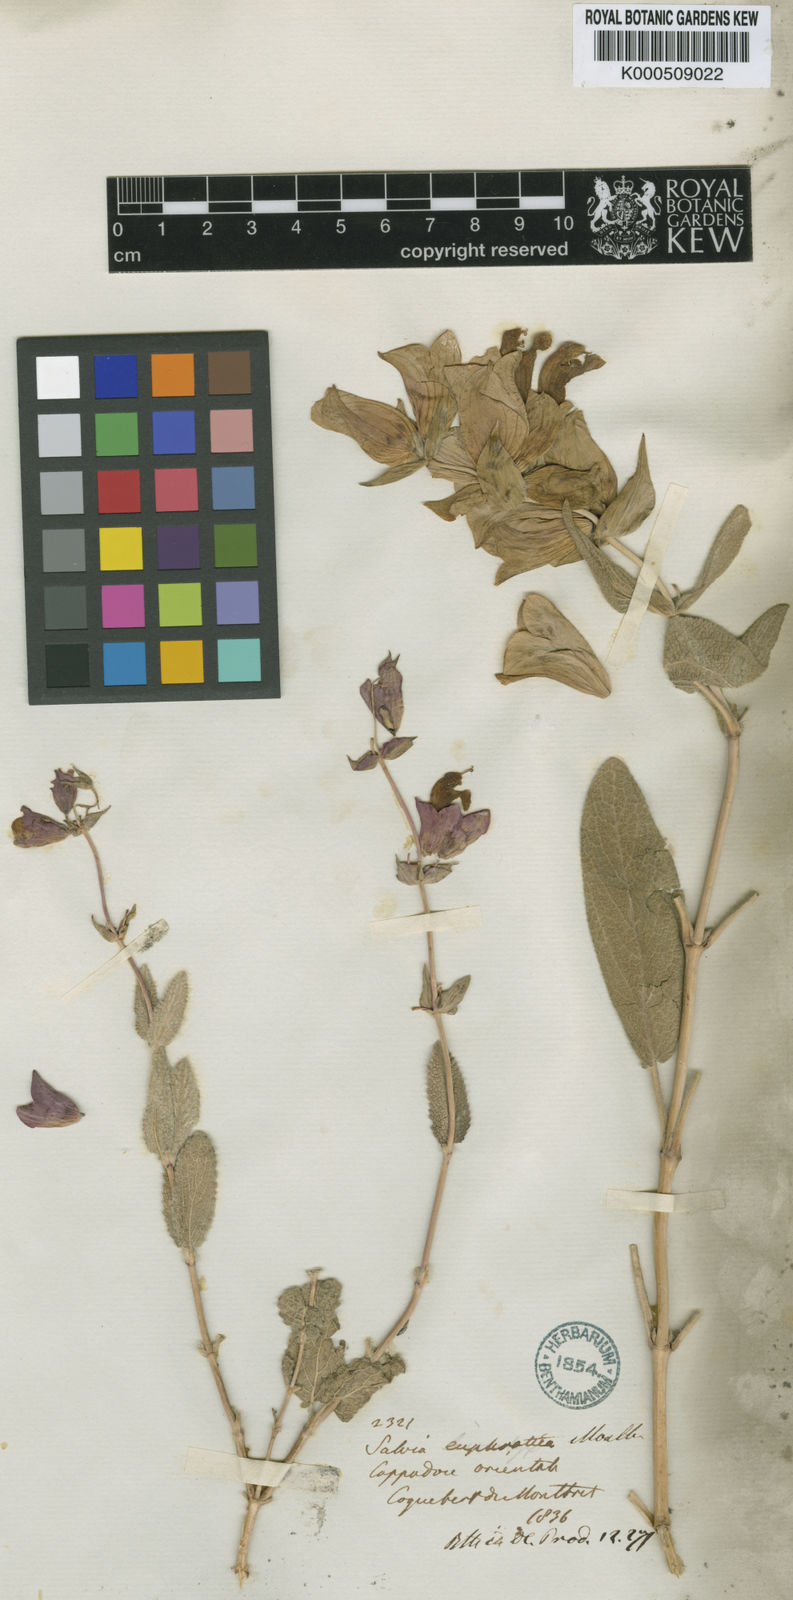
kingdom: Plantae
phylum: Tracheophyta
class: Magnoliopsida
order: Lamiales
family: Lamiaceae
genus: Salvia
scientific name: Salvia euphratica
